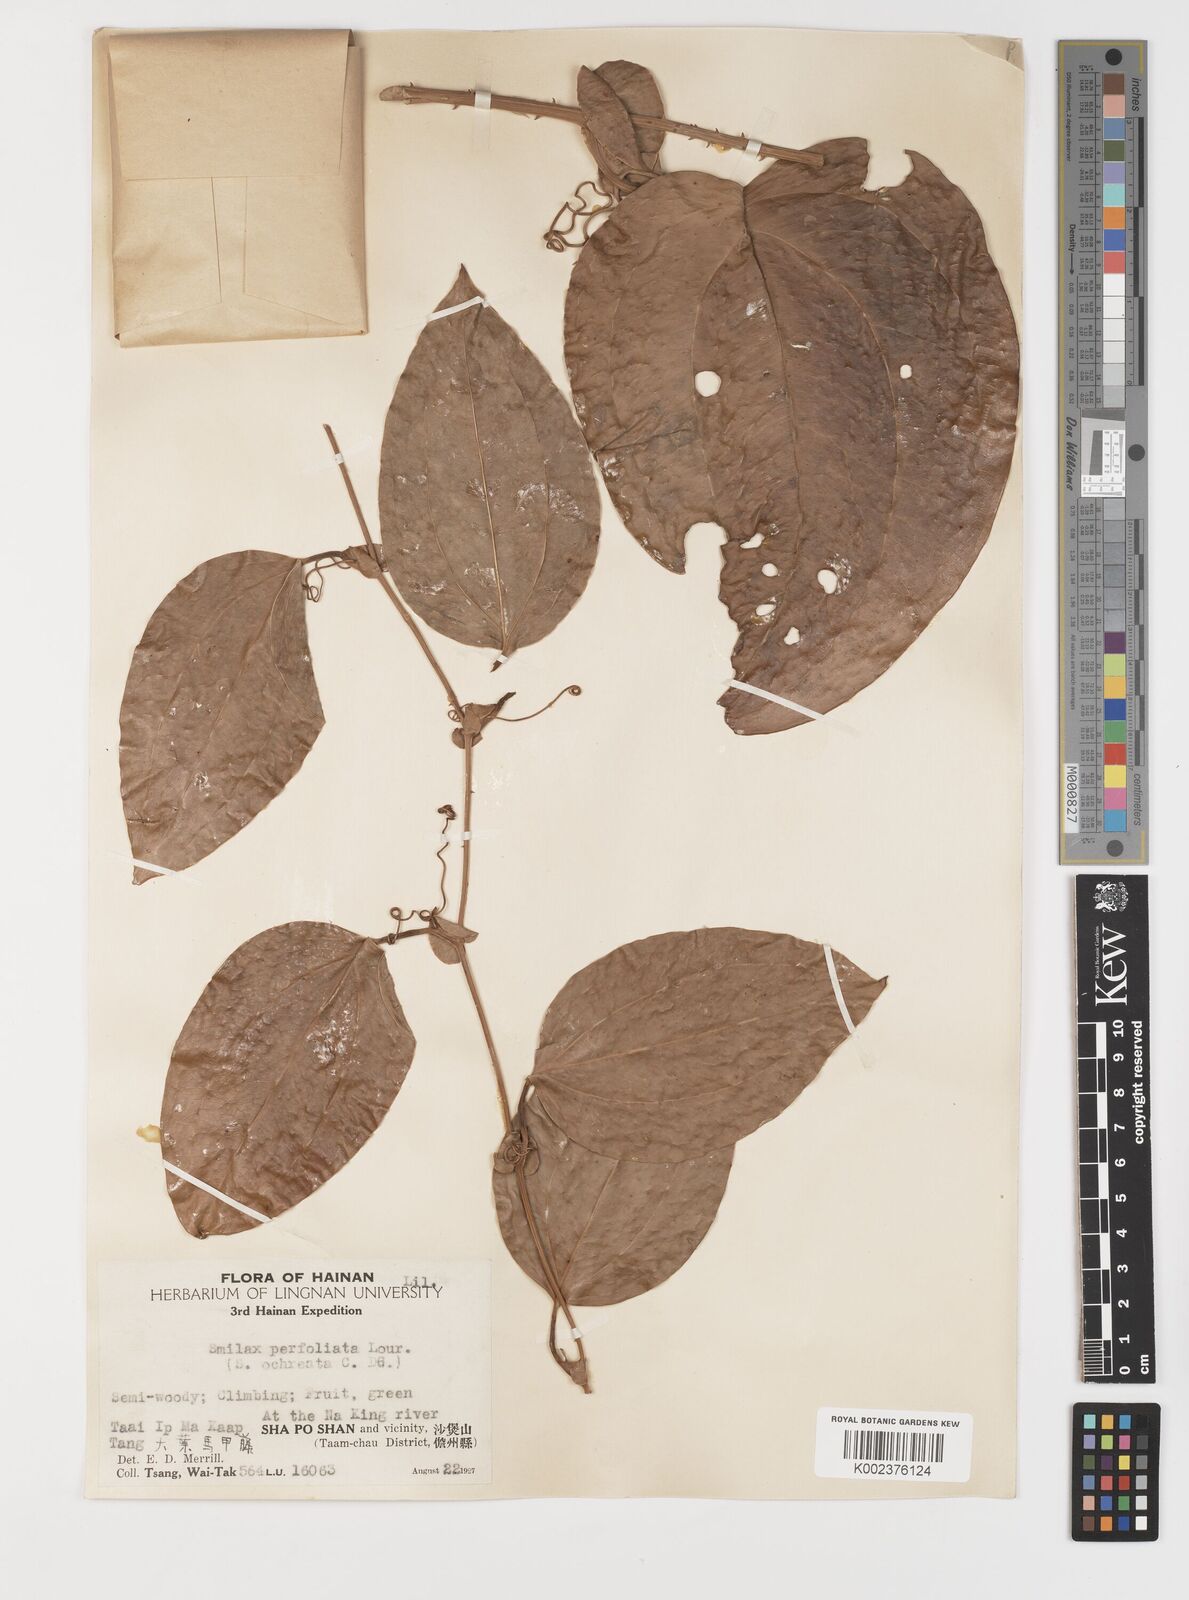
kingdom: Plantae
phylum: Tracheophyta
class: Liliopsida
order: Liliales
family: Smilacaceae
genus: Smilax
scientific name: Smilax ovalifolia
